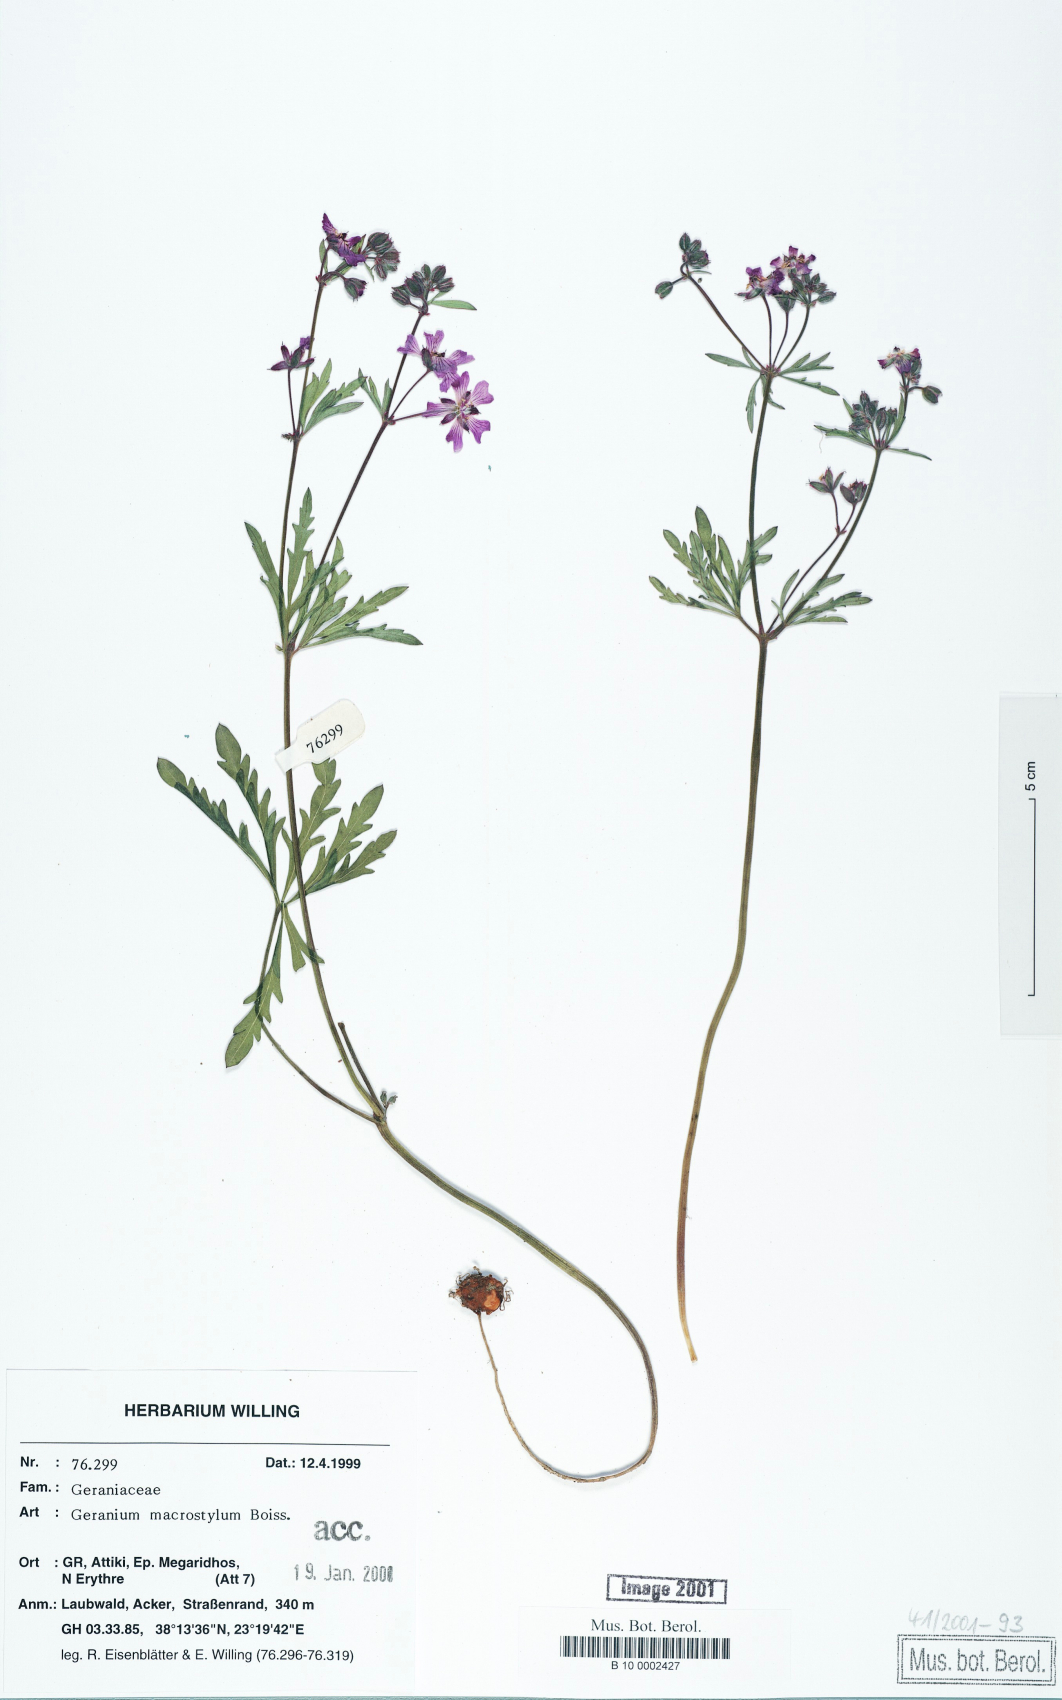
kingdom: Plantae
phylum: Tracheophyta
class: Magnoliopsida
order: Geraniales
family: Geraniaceae
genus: Geranium
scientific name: Geranium macrostylum
